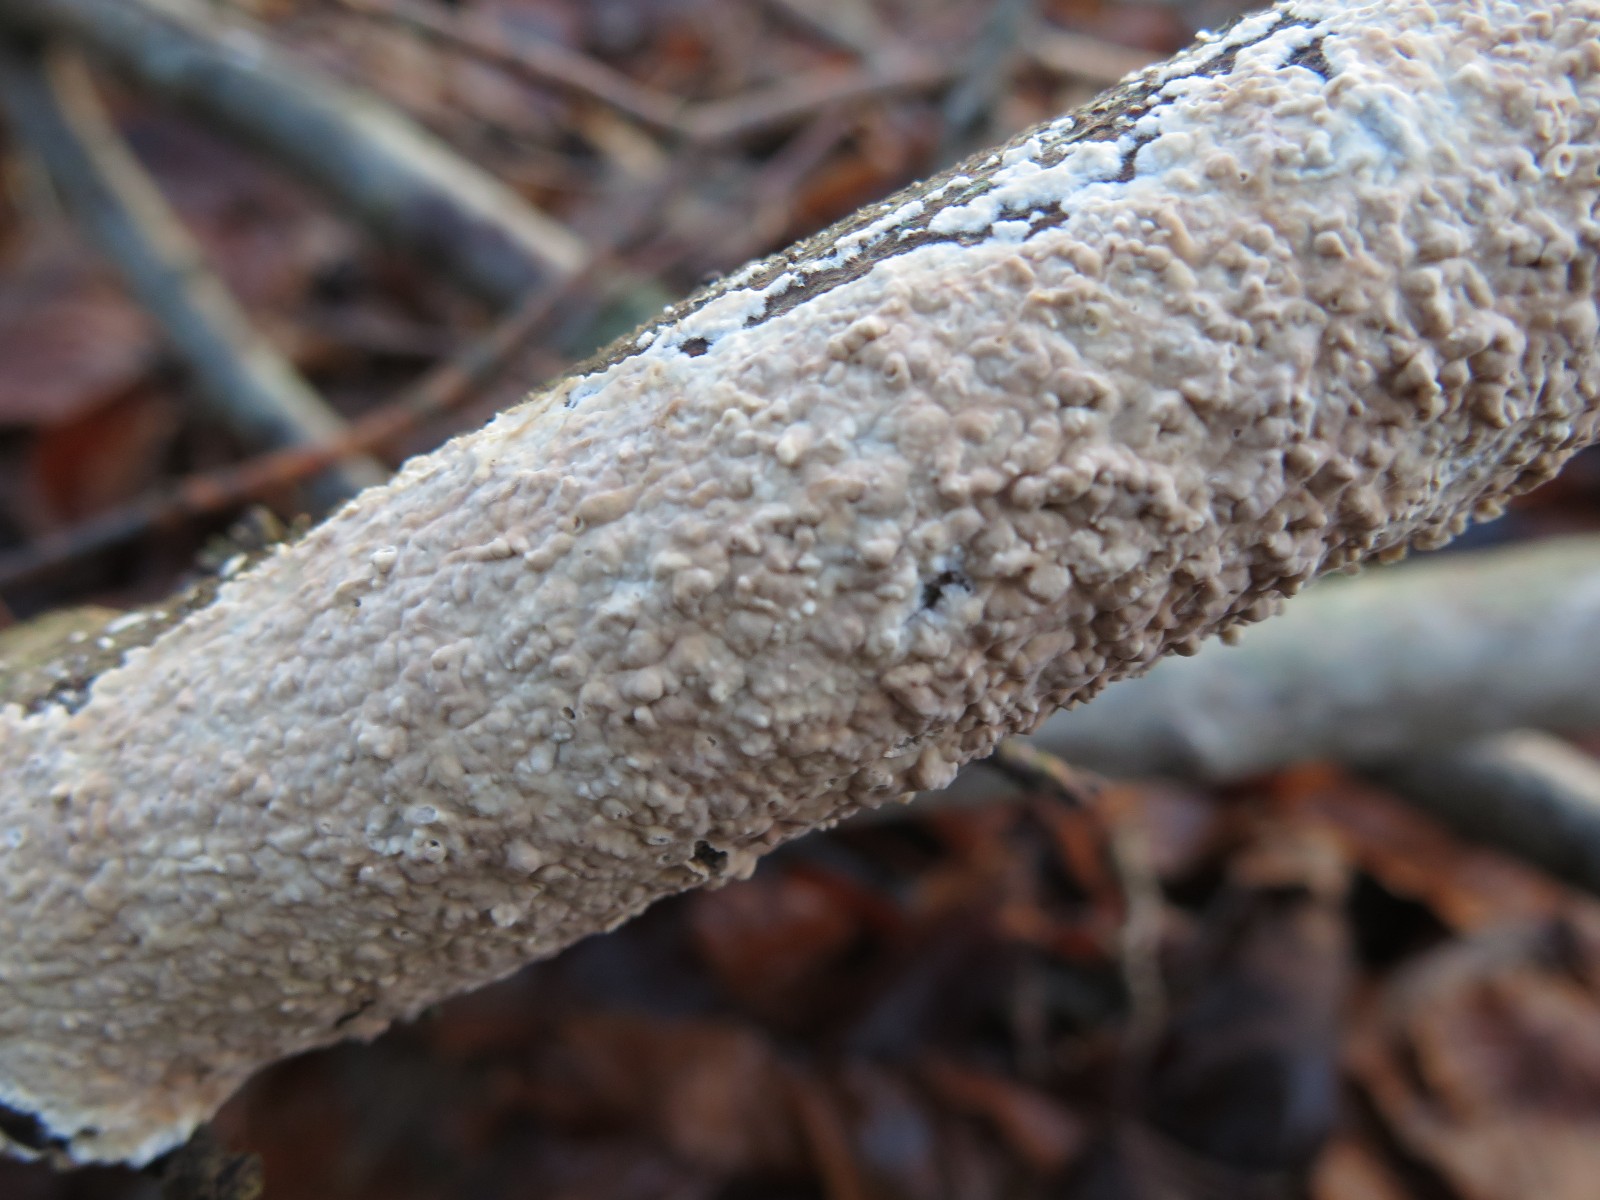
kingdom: Fungi
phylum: Basidiomycota
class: Agaricomycetes
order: Agaricales
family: Physalacriaceae
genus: Cylindrobasidium
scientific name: Cylindrobasidium evolvens
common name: sprækkehinde
